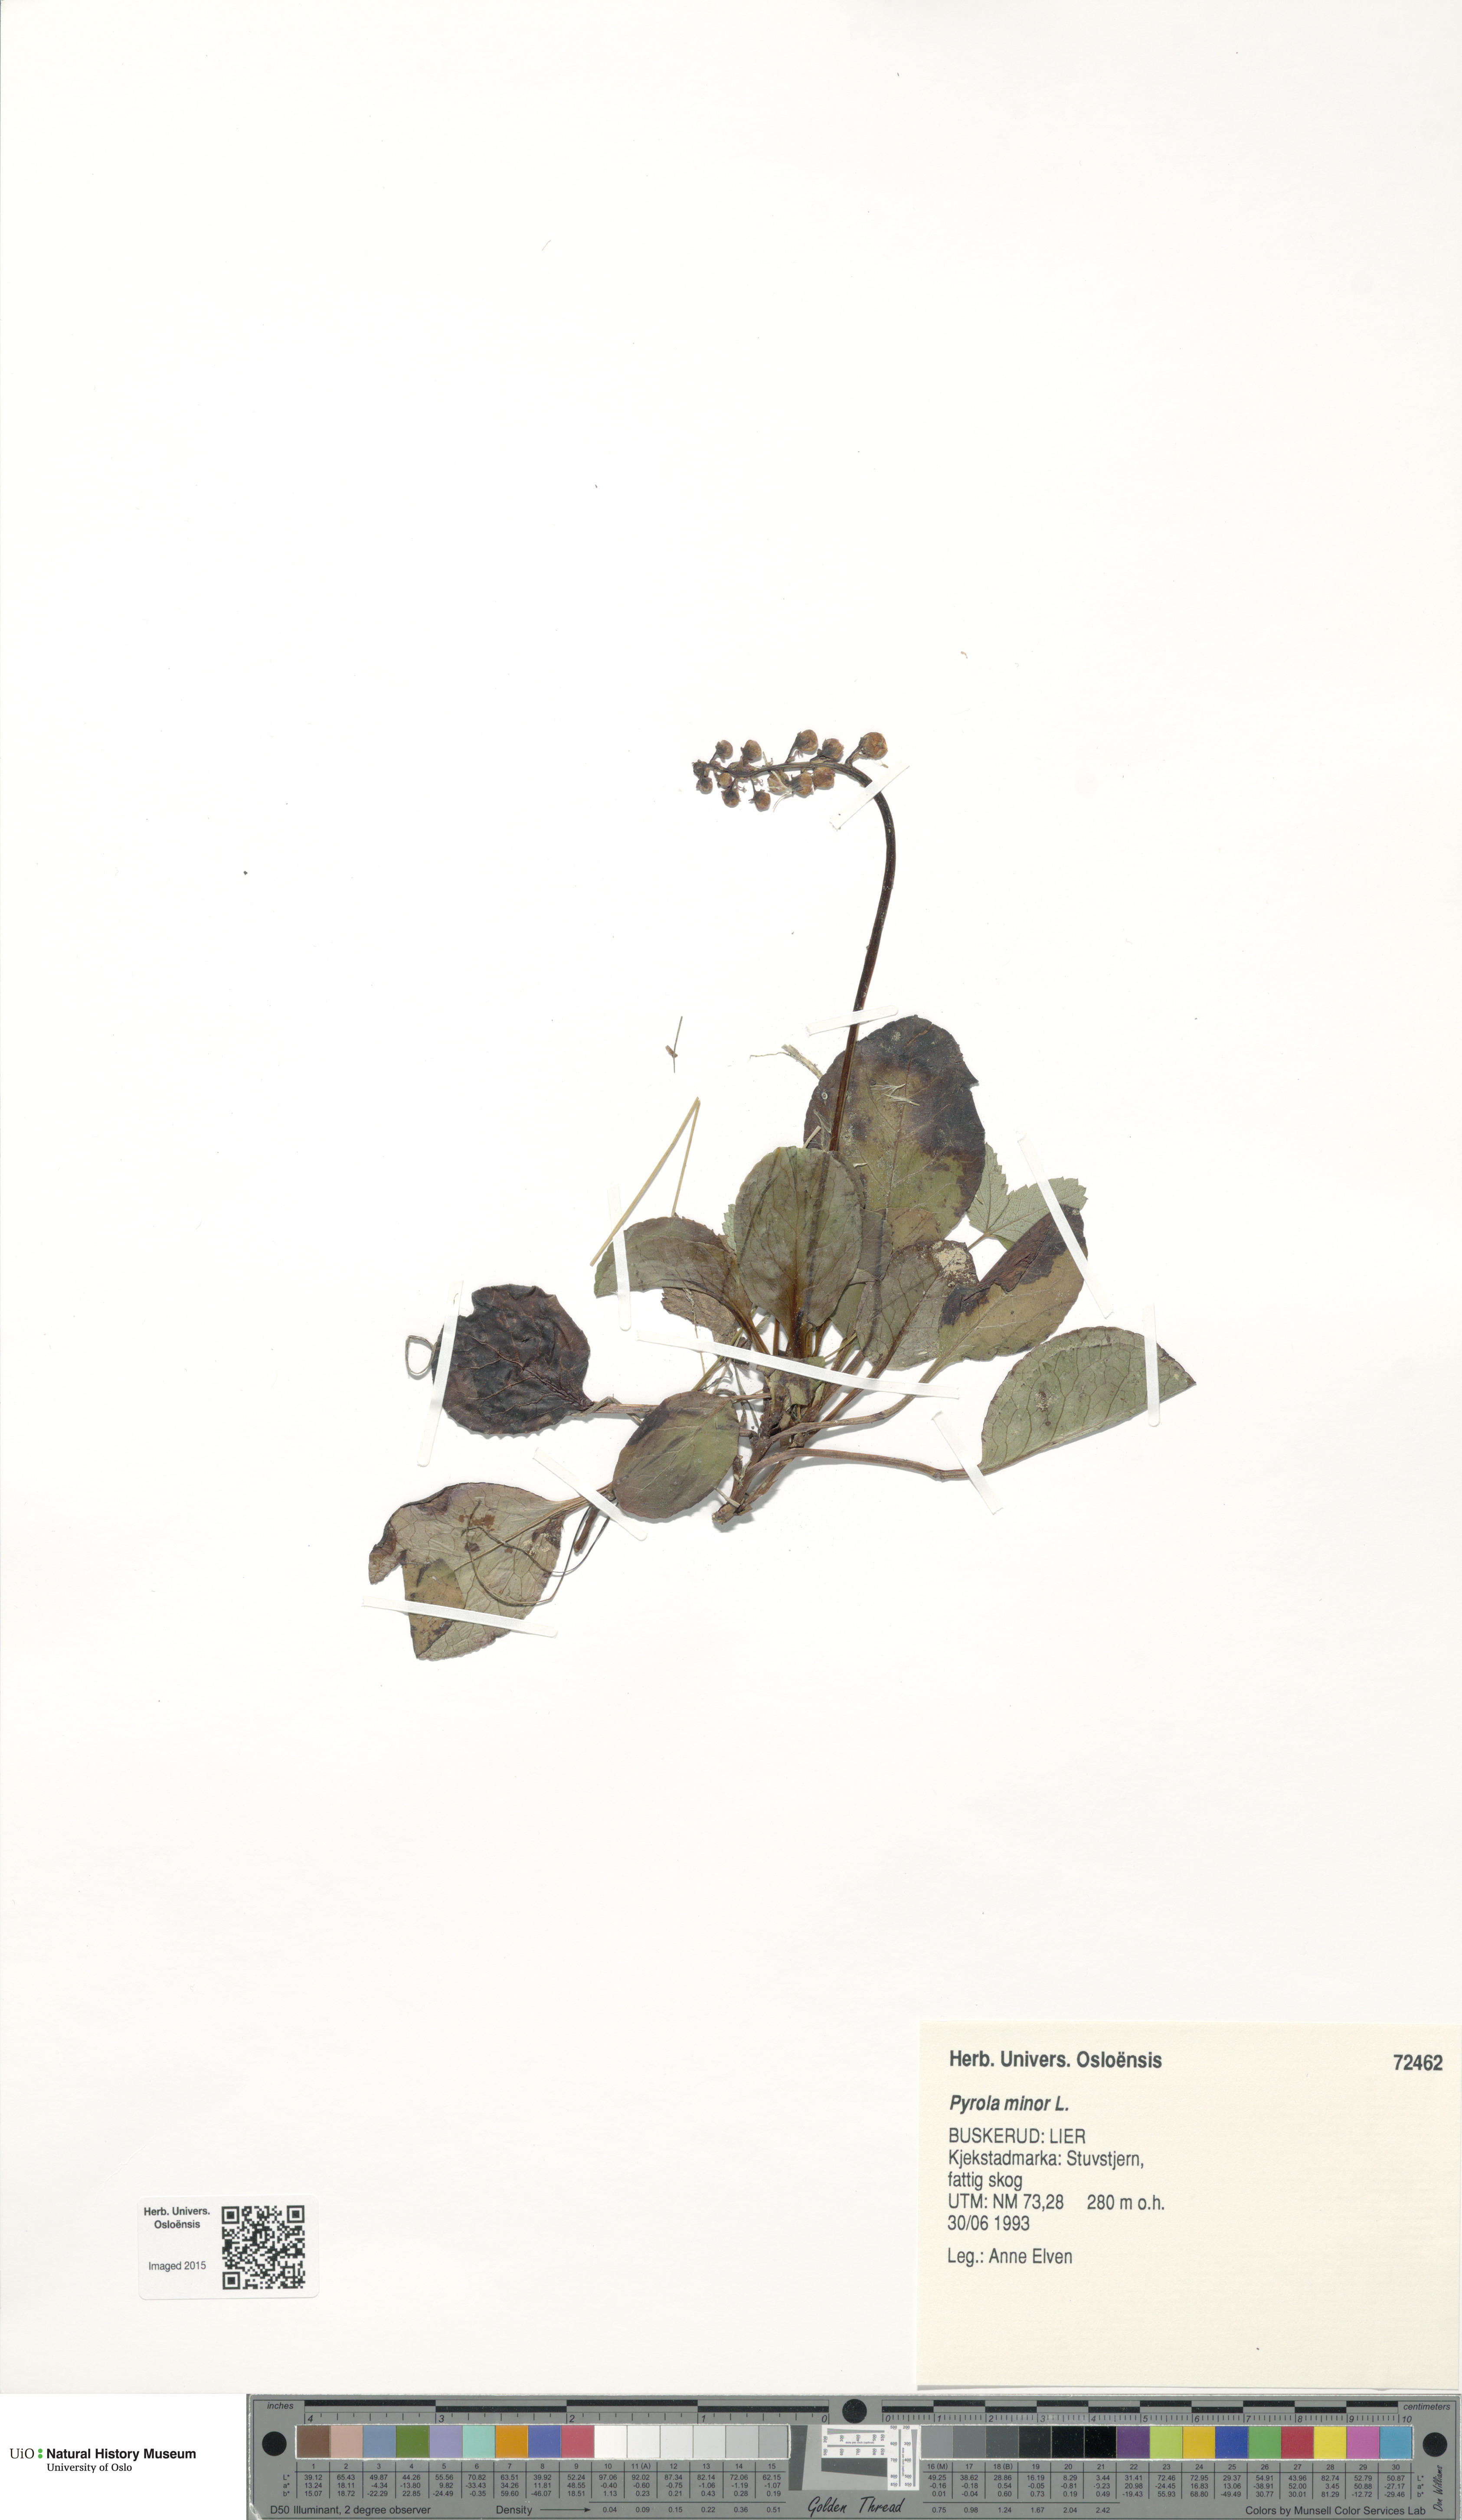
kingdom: Plantae
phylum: Tracheophyta
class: Magnoliopsida
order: Ericales
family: Ericaceae
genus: Pyrola
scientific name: Pyrola minor
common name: Common wintergreen
